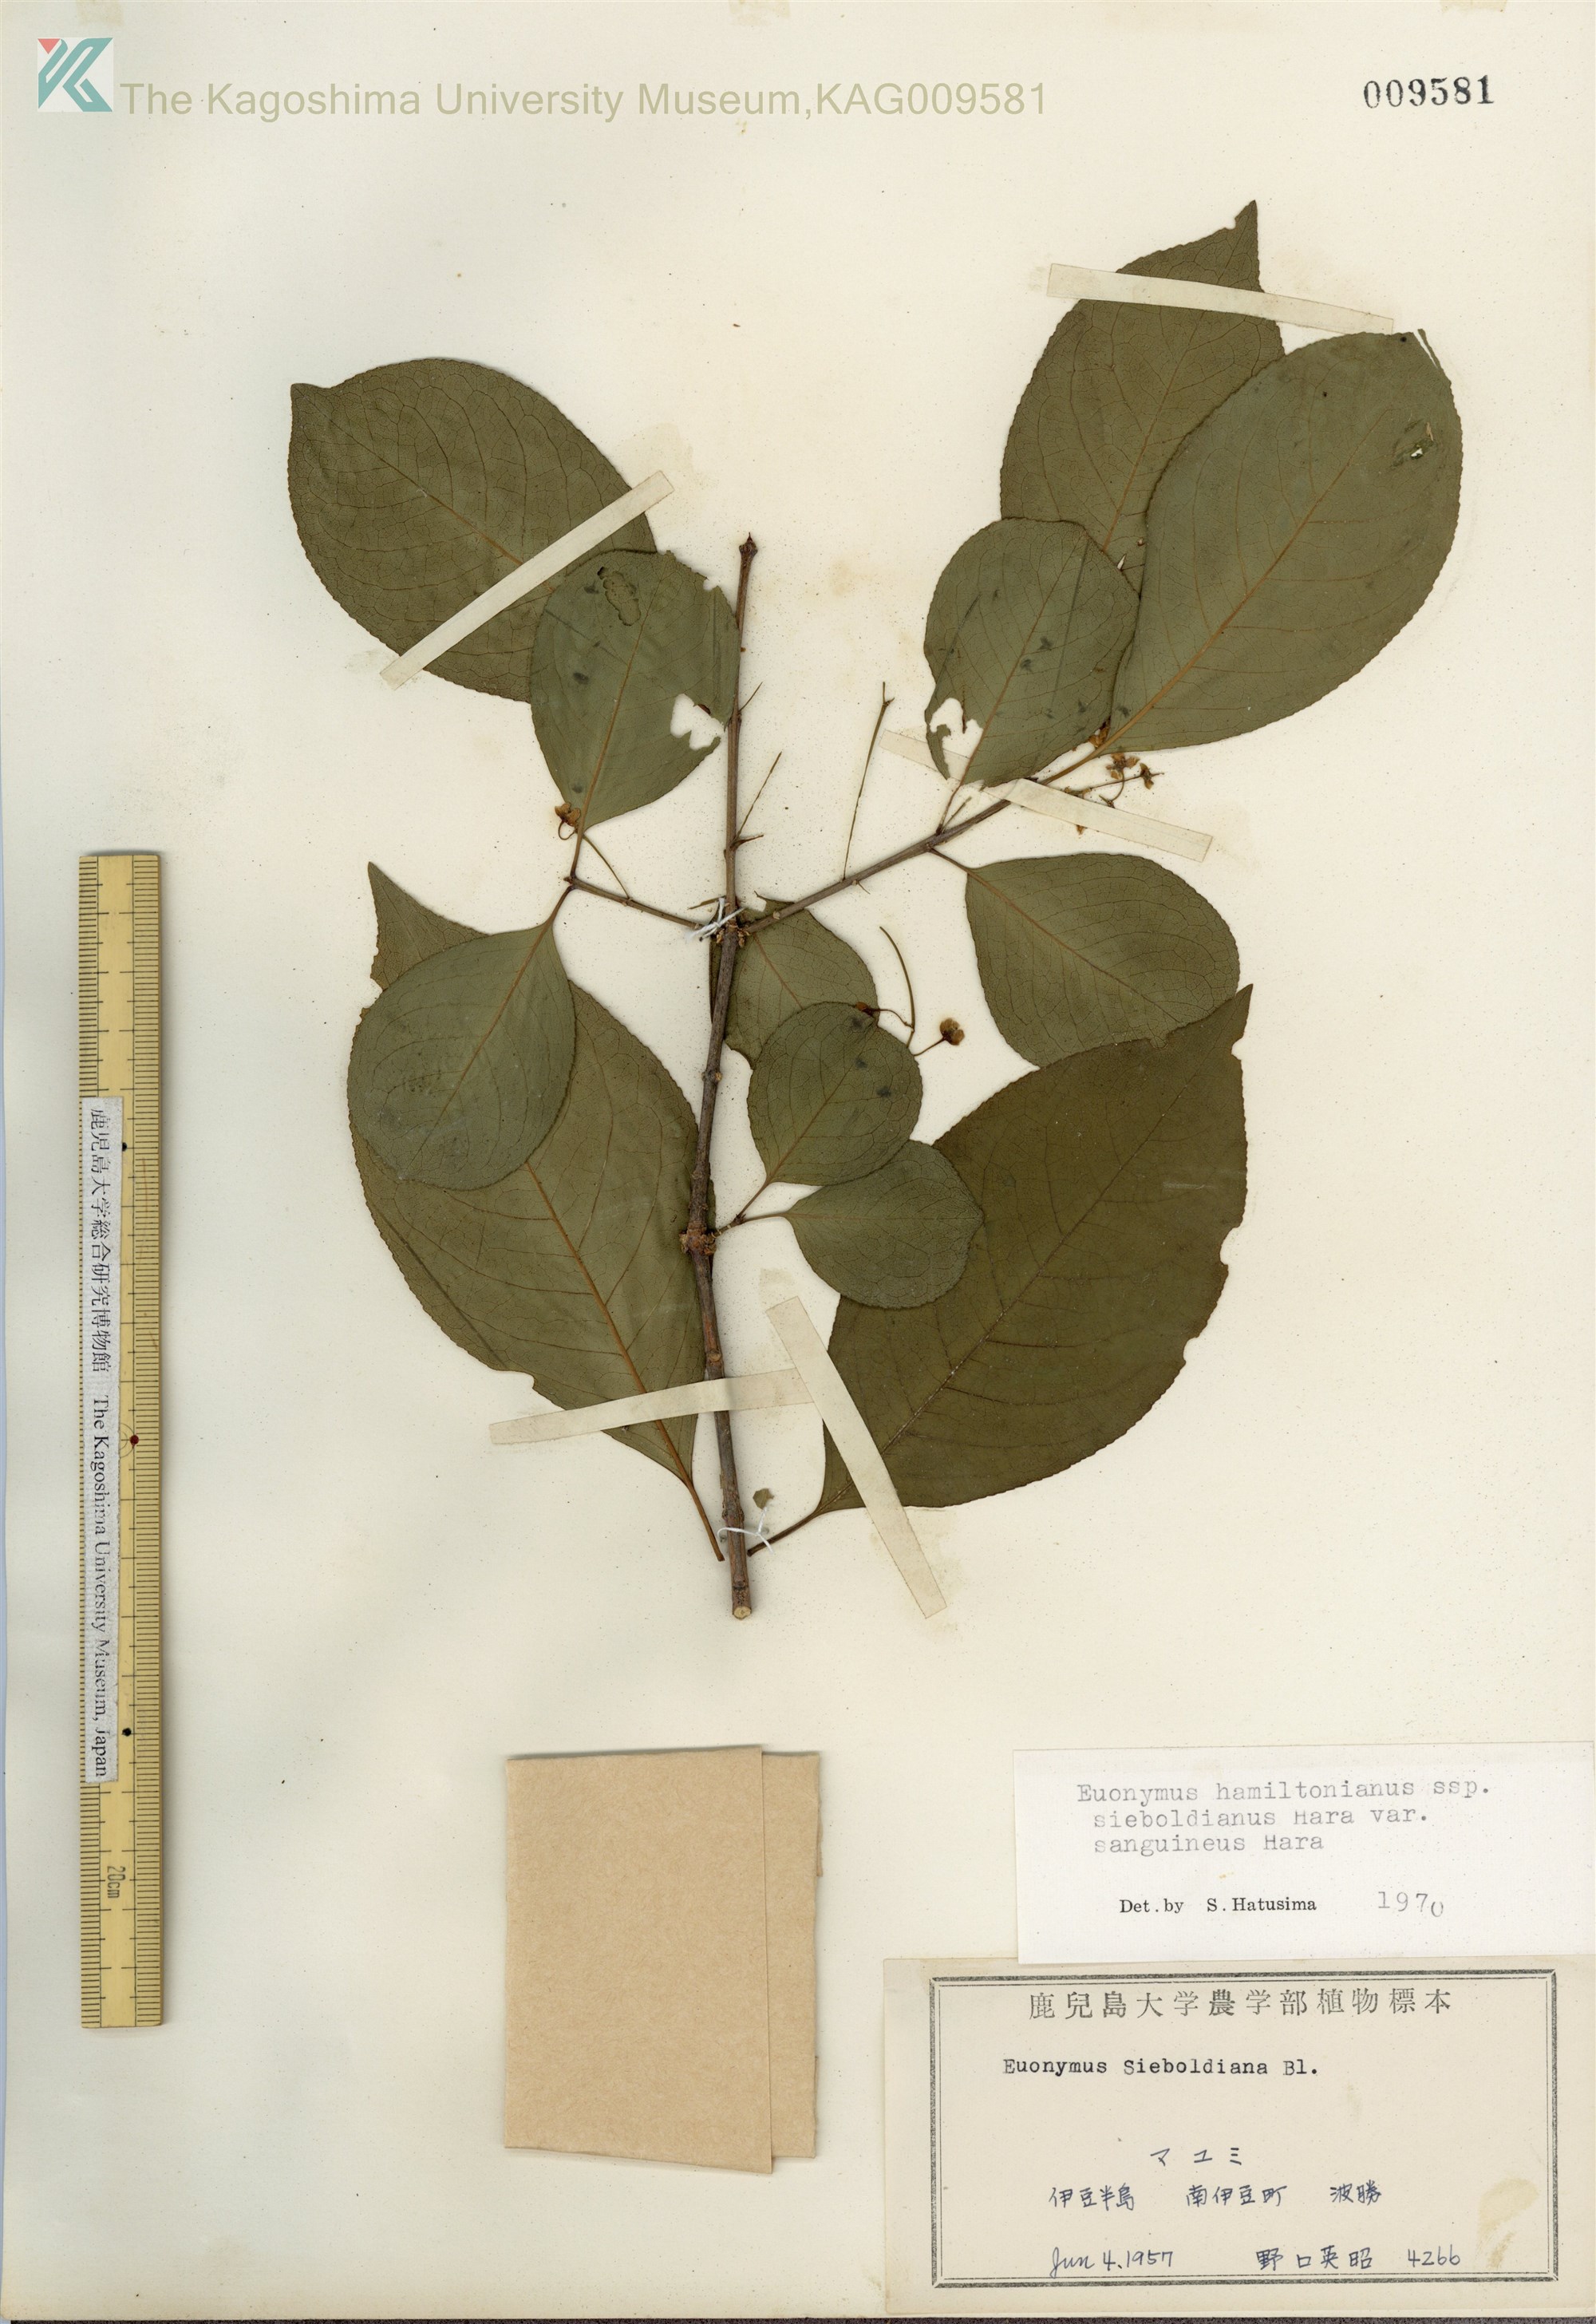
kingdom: Plantae
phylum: Tracheophyta
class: Magnoliopsida
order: Celastrales
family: Celastraceae
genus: Euonymus
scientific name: Euonymus hamiltonianus
